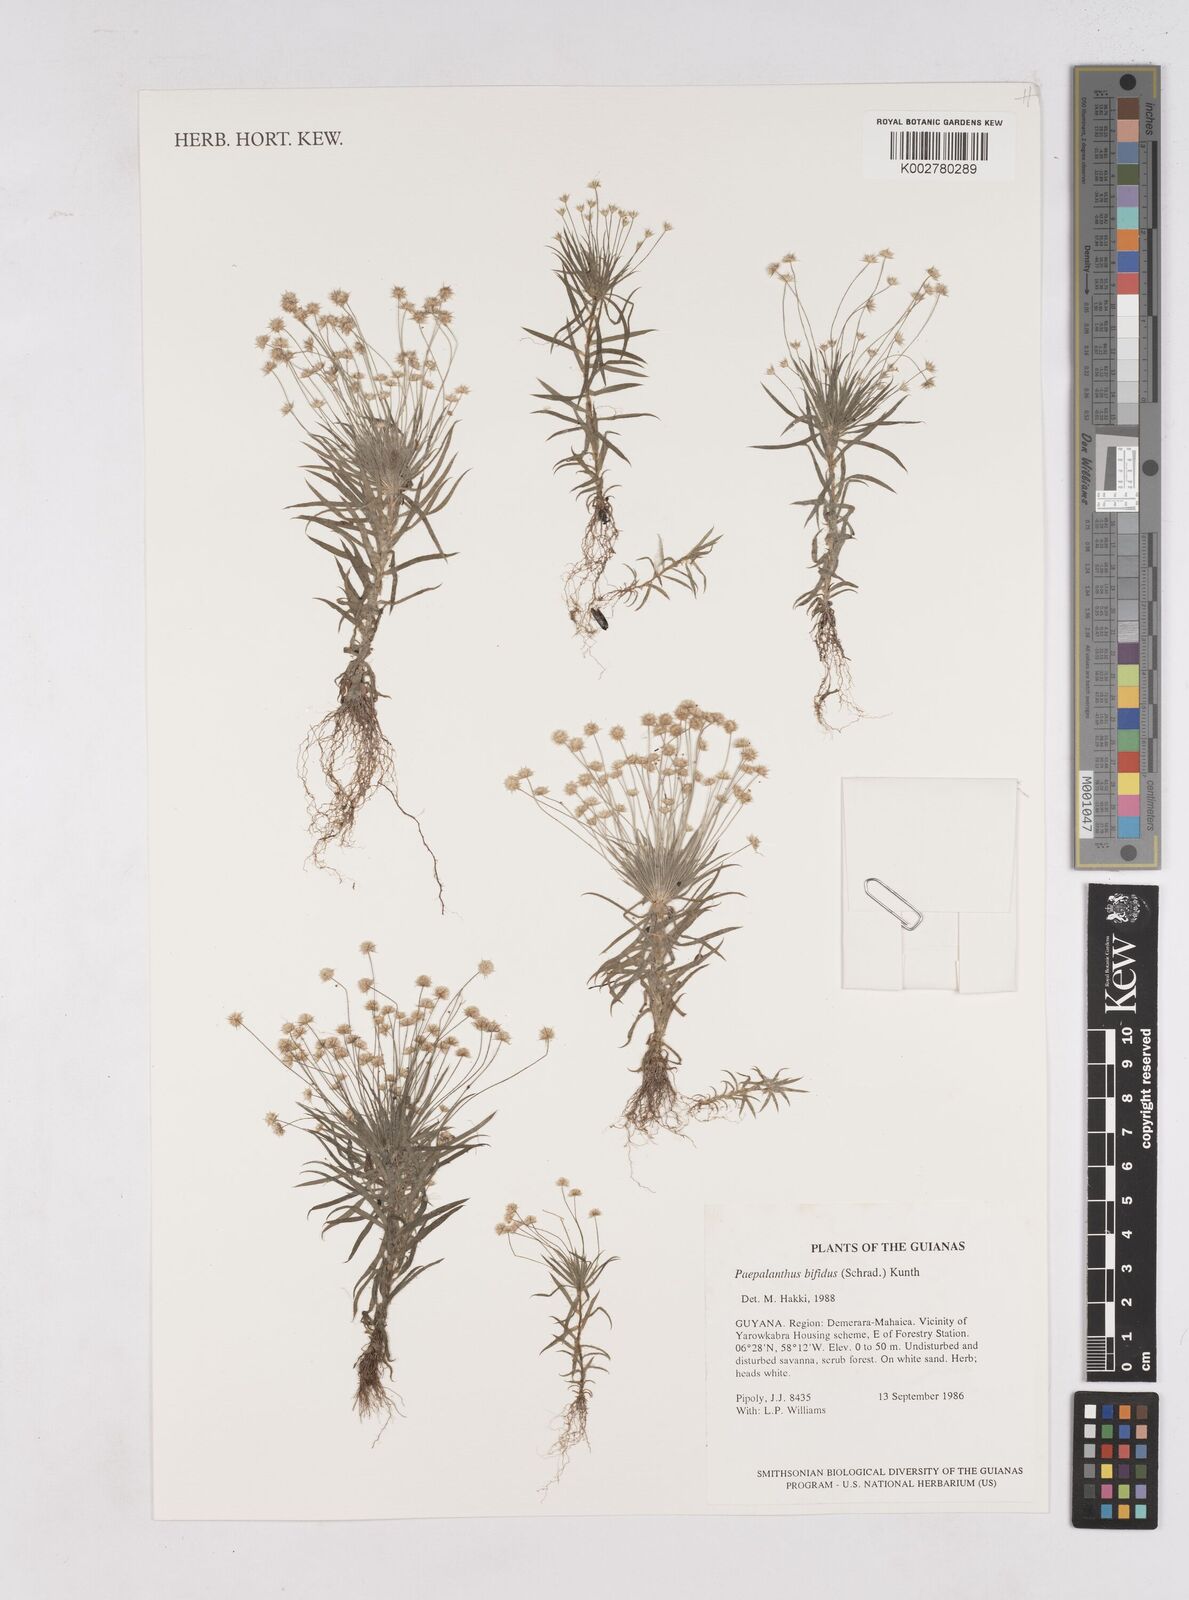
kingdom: Plantae
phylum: Tracheophyta
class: Liliopsida
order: Poales
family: Eriocaulaceae
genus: Paepalanthus
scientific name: Paepalanthus bifidus
